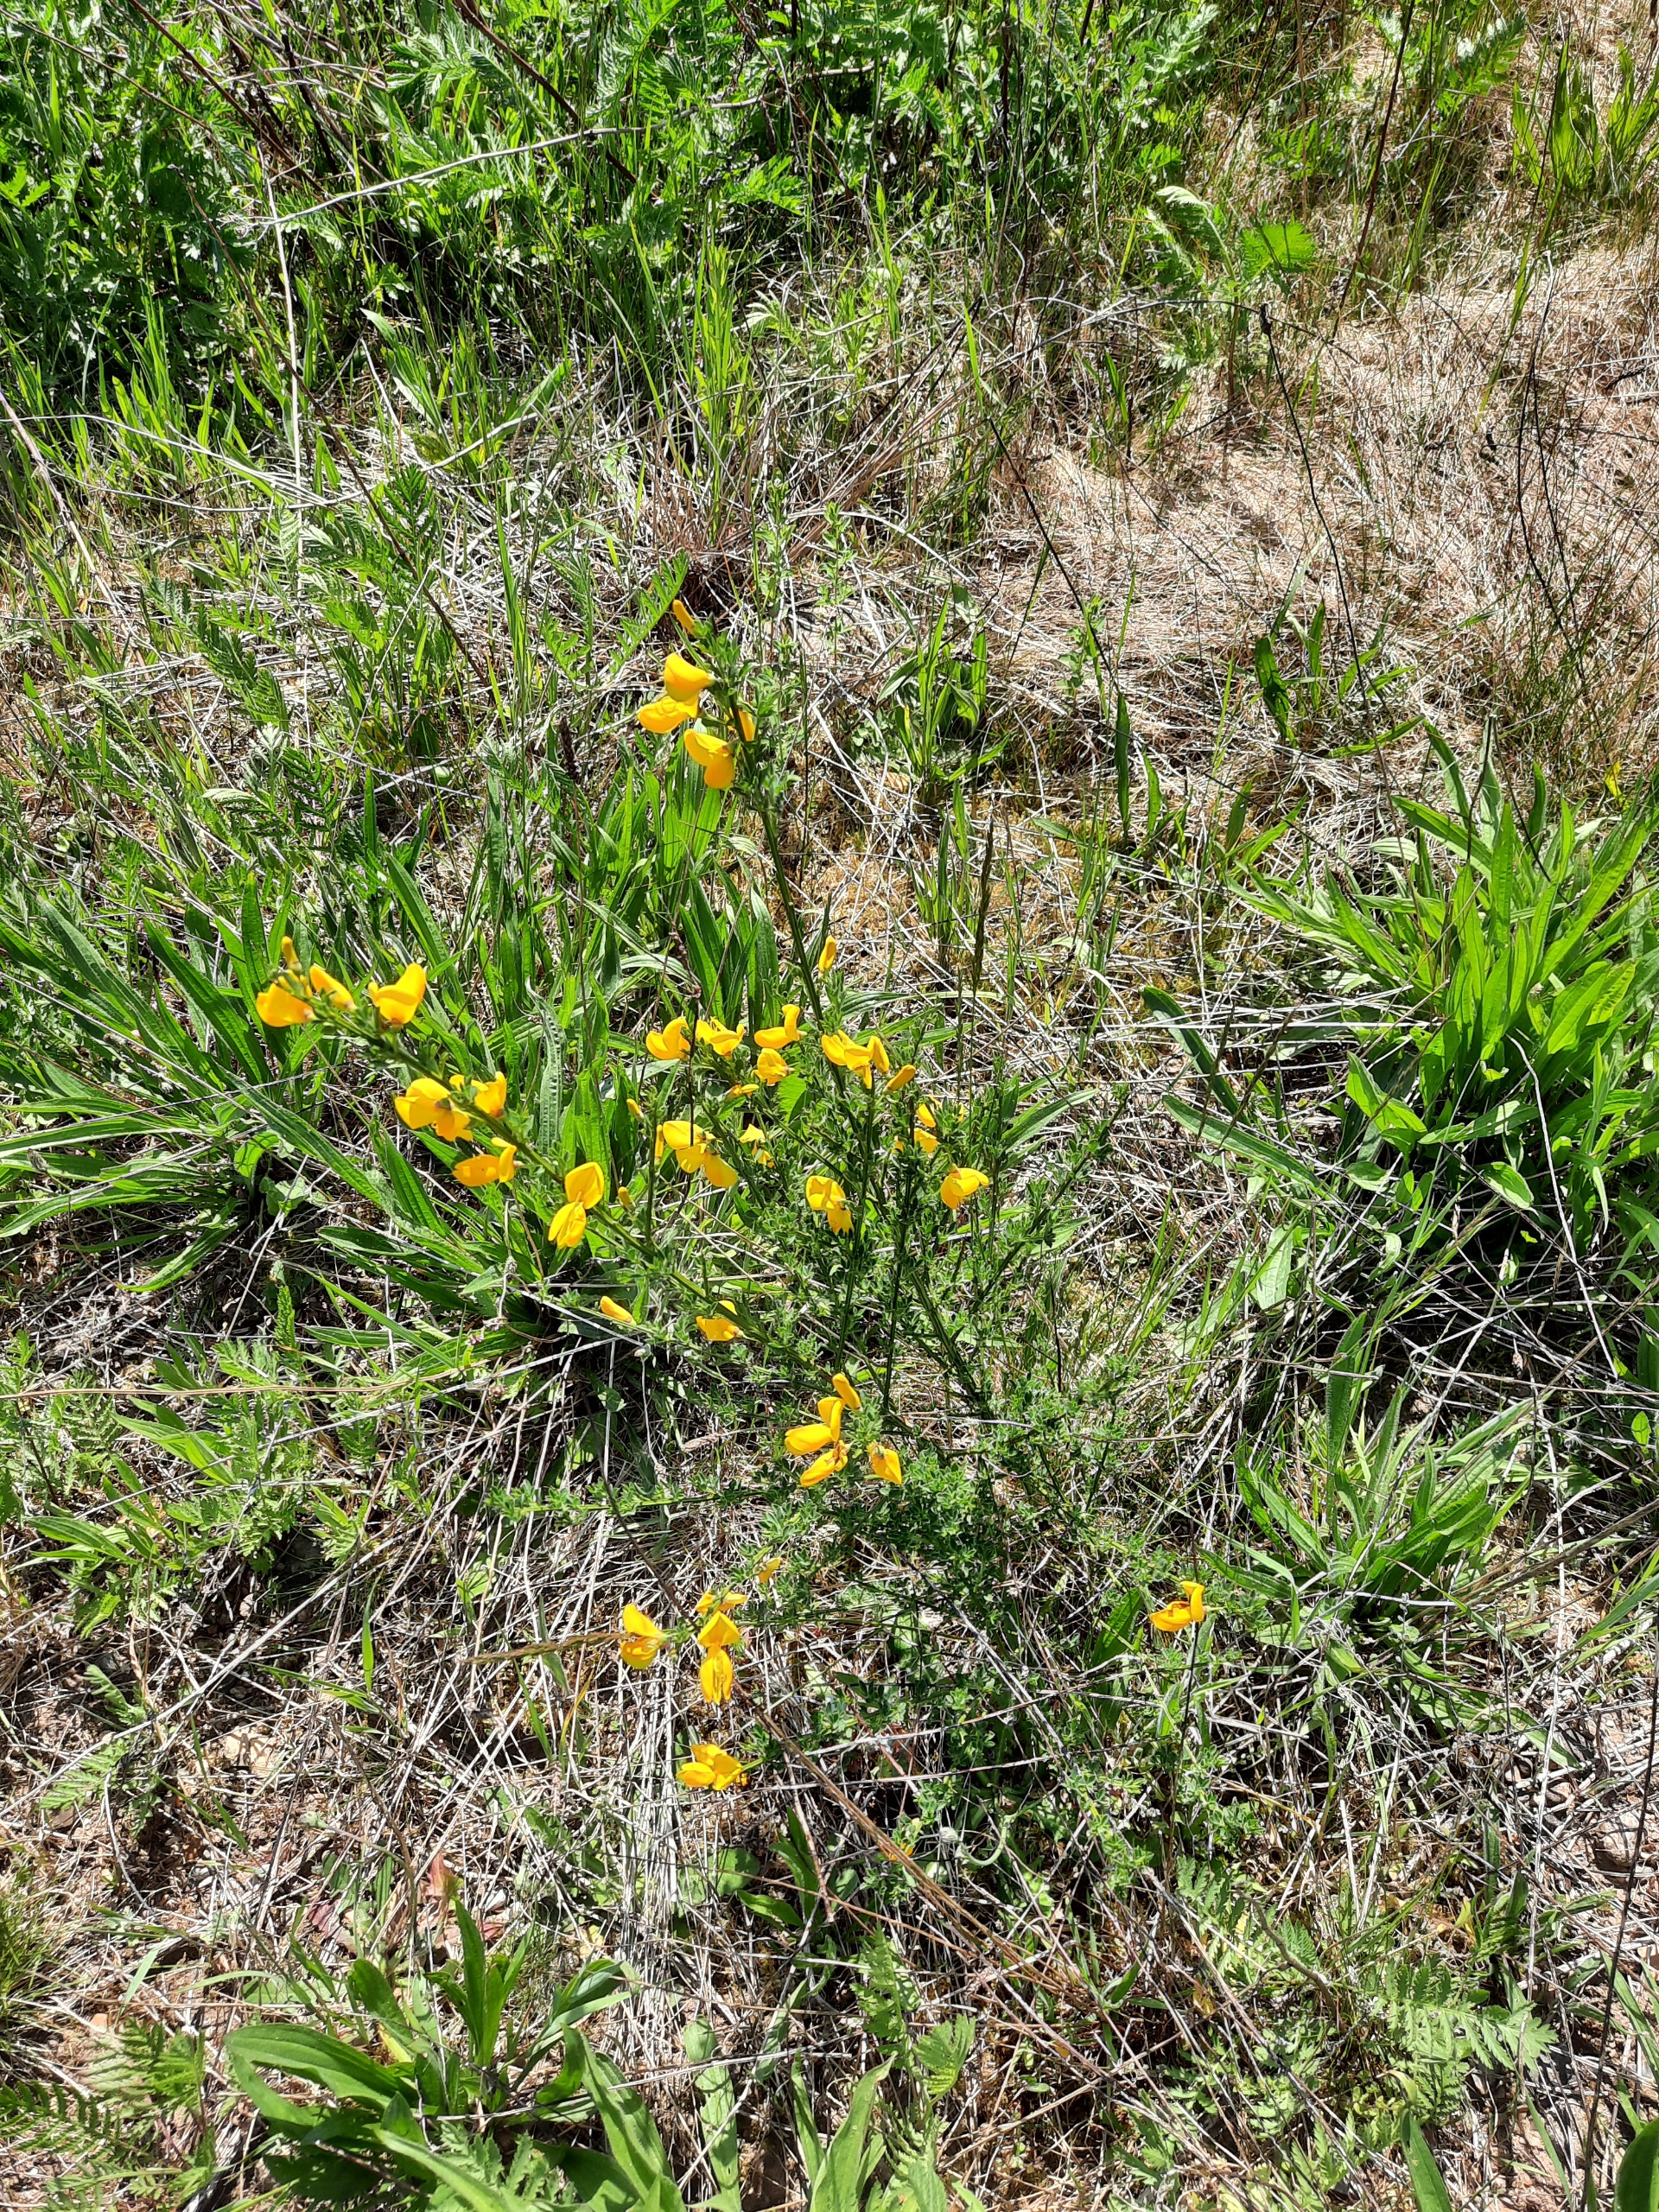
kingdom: Plantae
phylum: Tracheophyta
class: Magnoliopsida
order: Fabales
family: Fabaceae
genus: Cytisus
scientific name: Cytisus scoparius
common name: Almindelig gyvel
